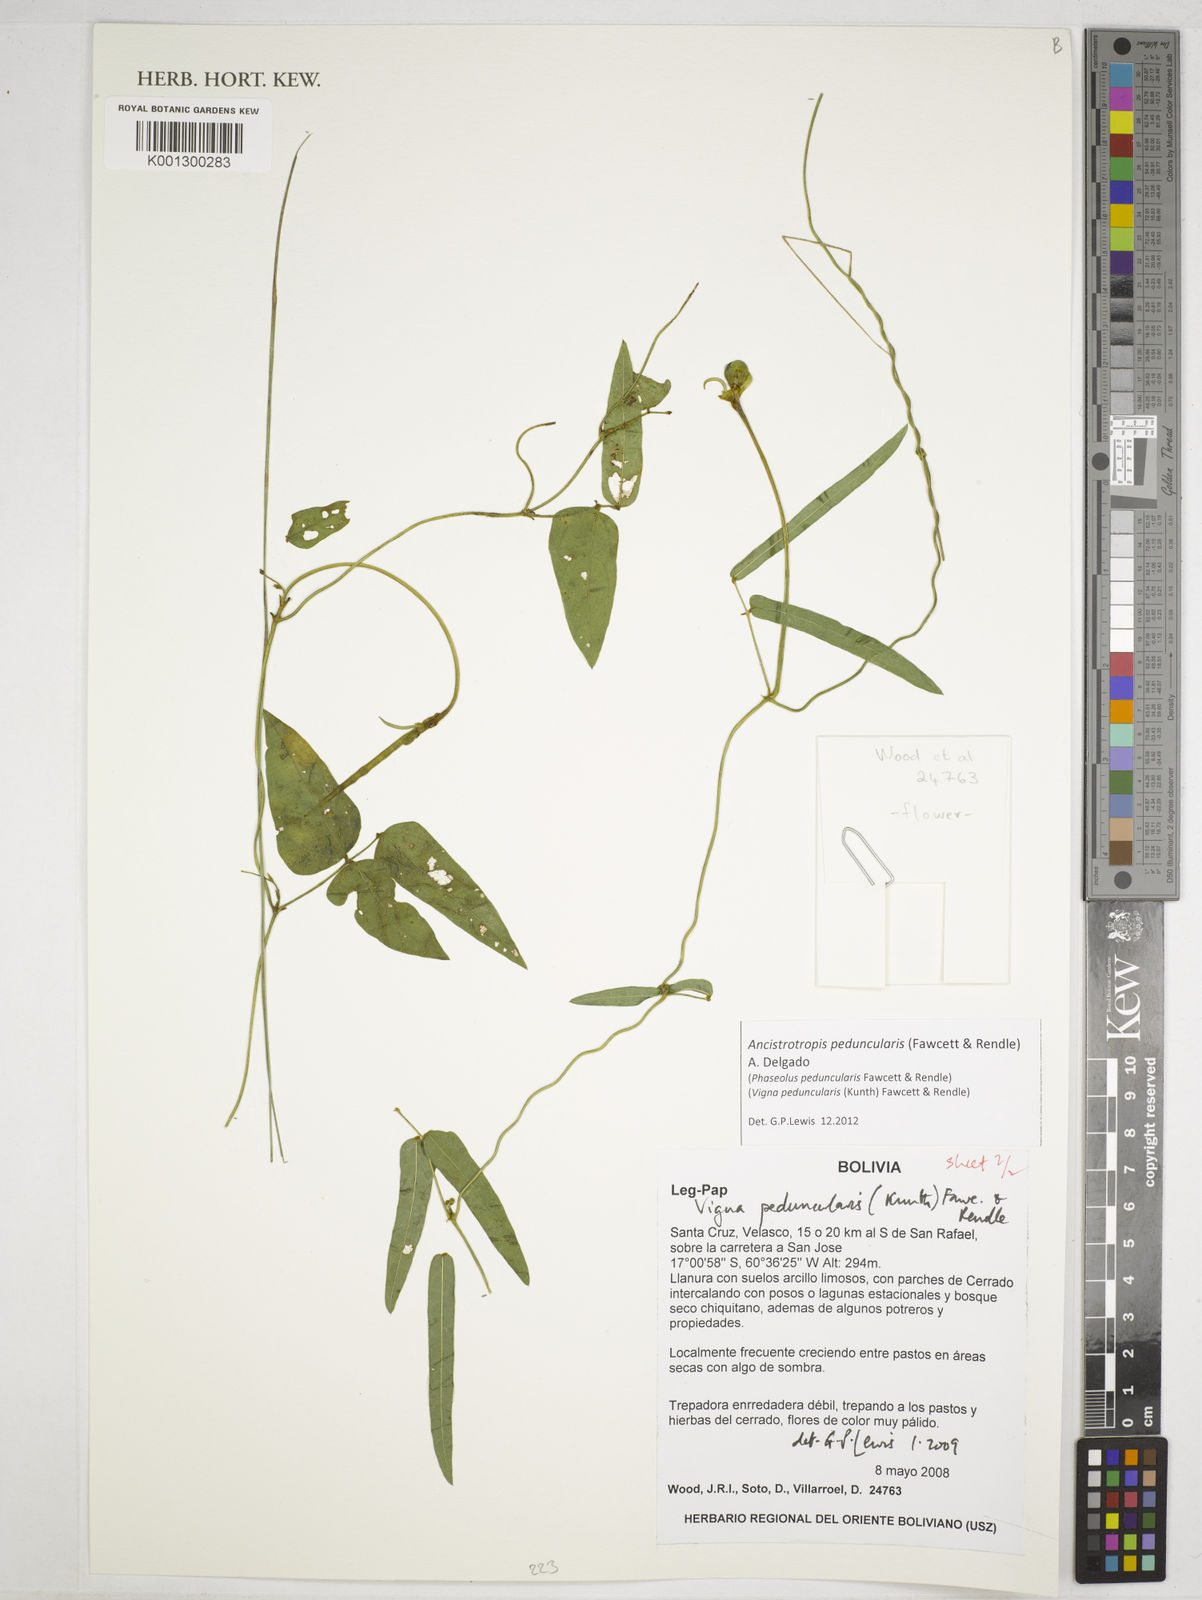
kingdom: Plantae
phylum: Tracheophyta
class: Magnoliopsida
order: Fabales
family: Fabaceae
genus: Ancistrotropis
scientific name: Ancistrotropis peduncularis
